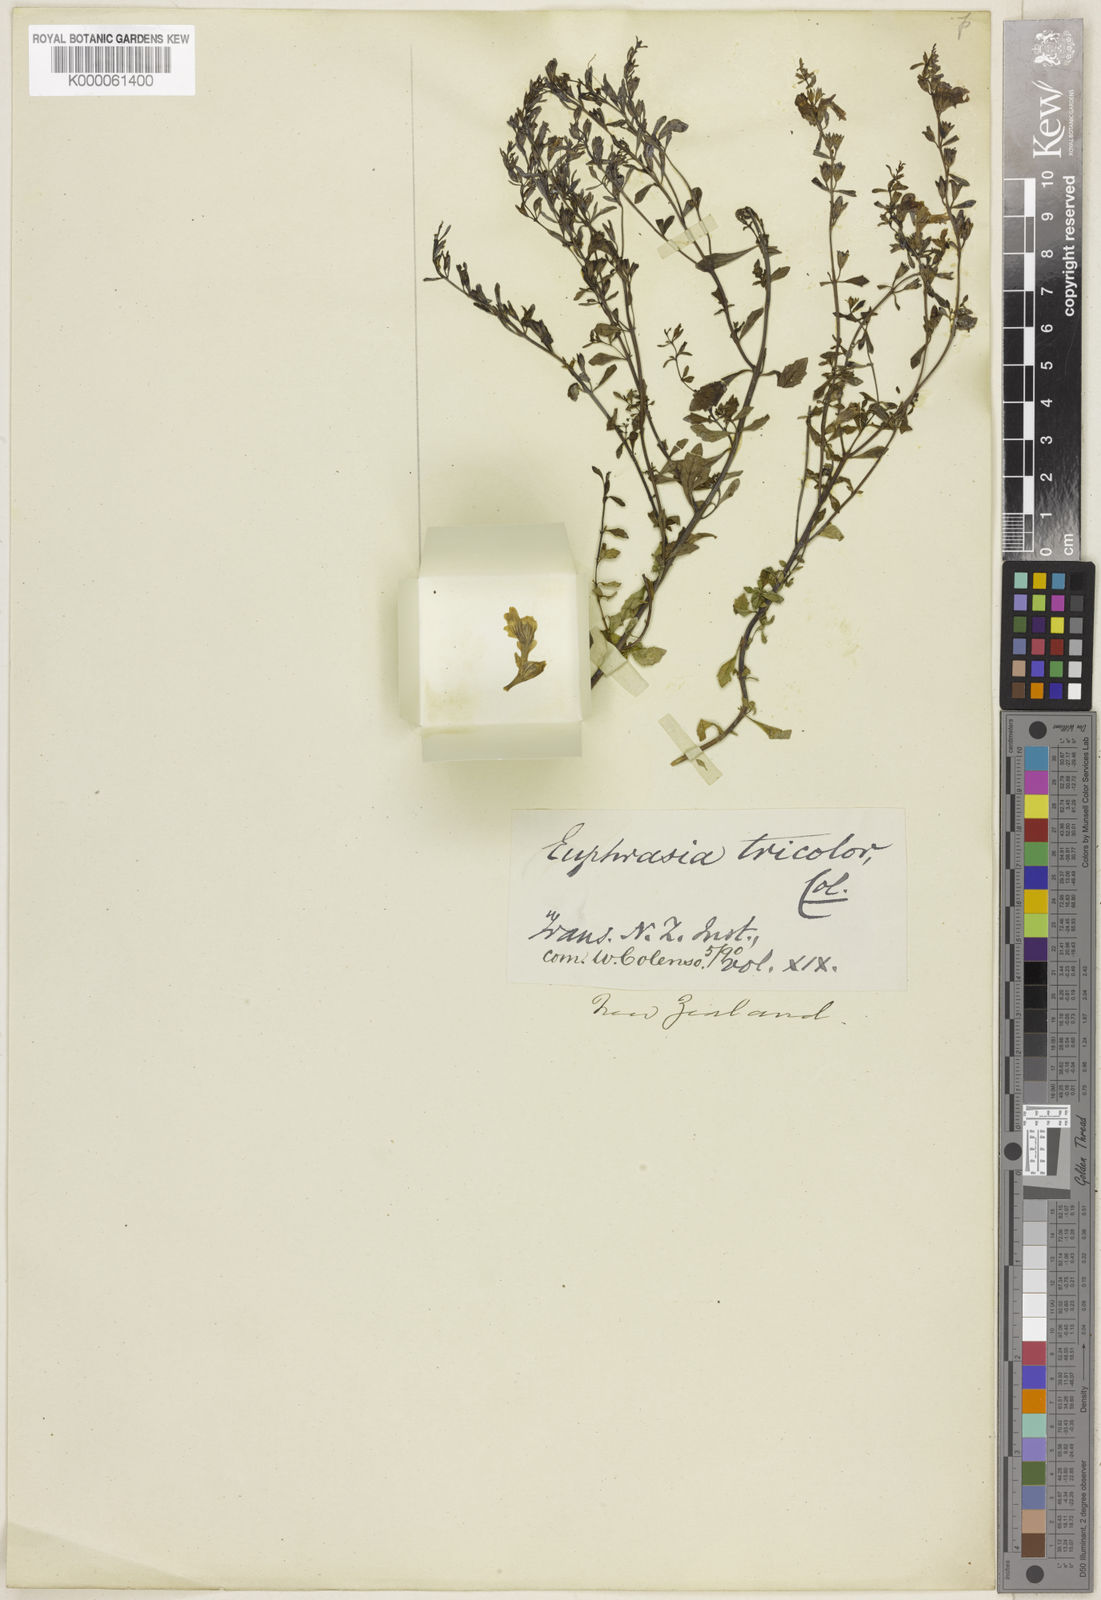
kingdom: Plantae
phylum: Tracheophyta
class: Magnoliopsida
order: Lamiales
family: Orobanchaceae
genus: Euphrasia
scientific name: Euphrasia cuneata
